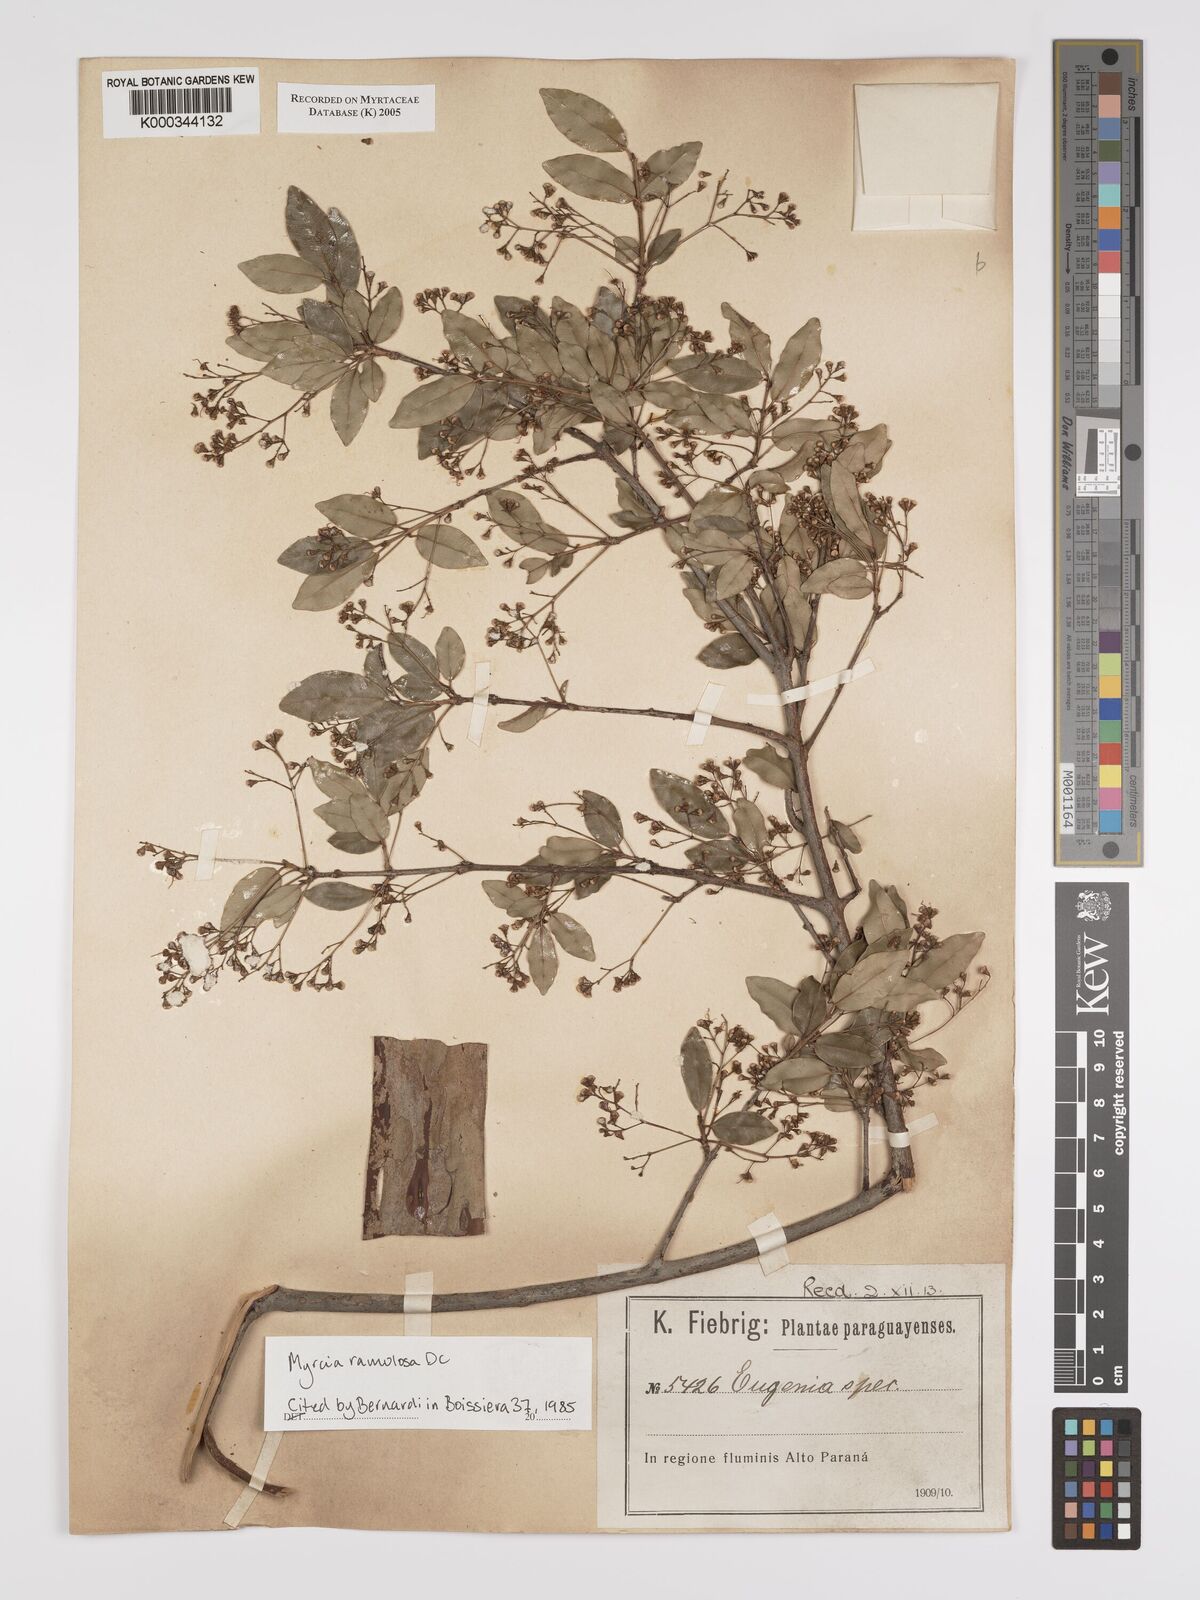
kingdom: Plantae
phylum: Tracheophyta
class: Magnoliopsida
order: Myrtales
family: Myrtaceae
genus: Myrcia
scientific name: Myrcia selloi
